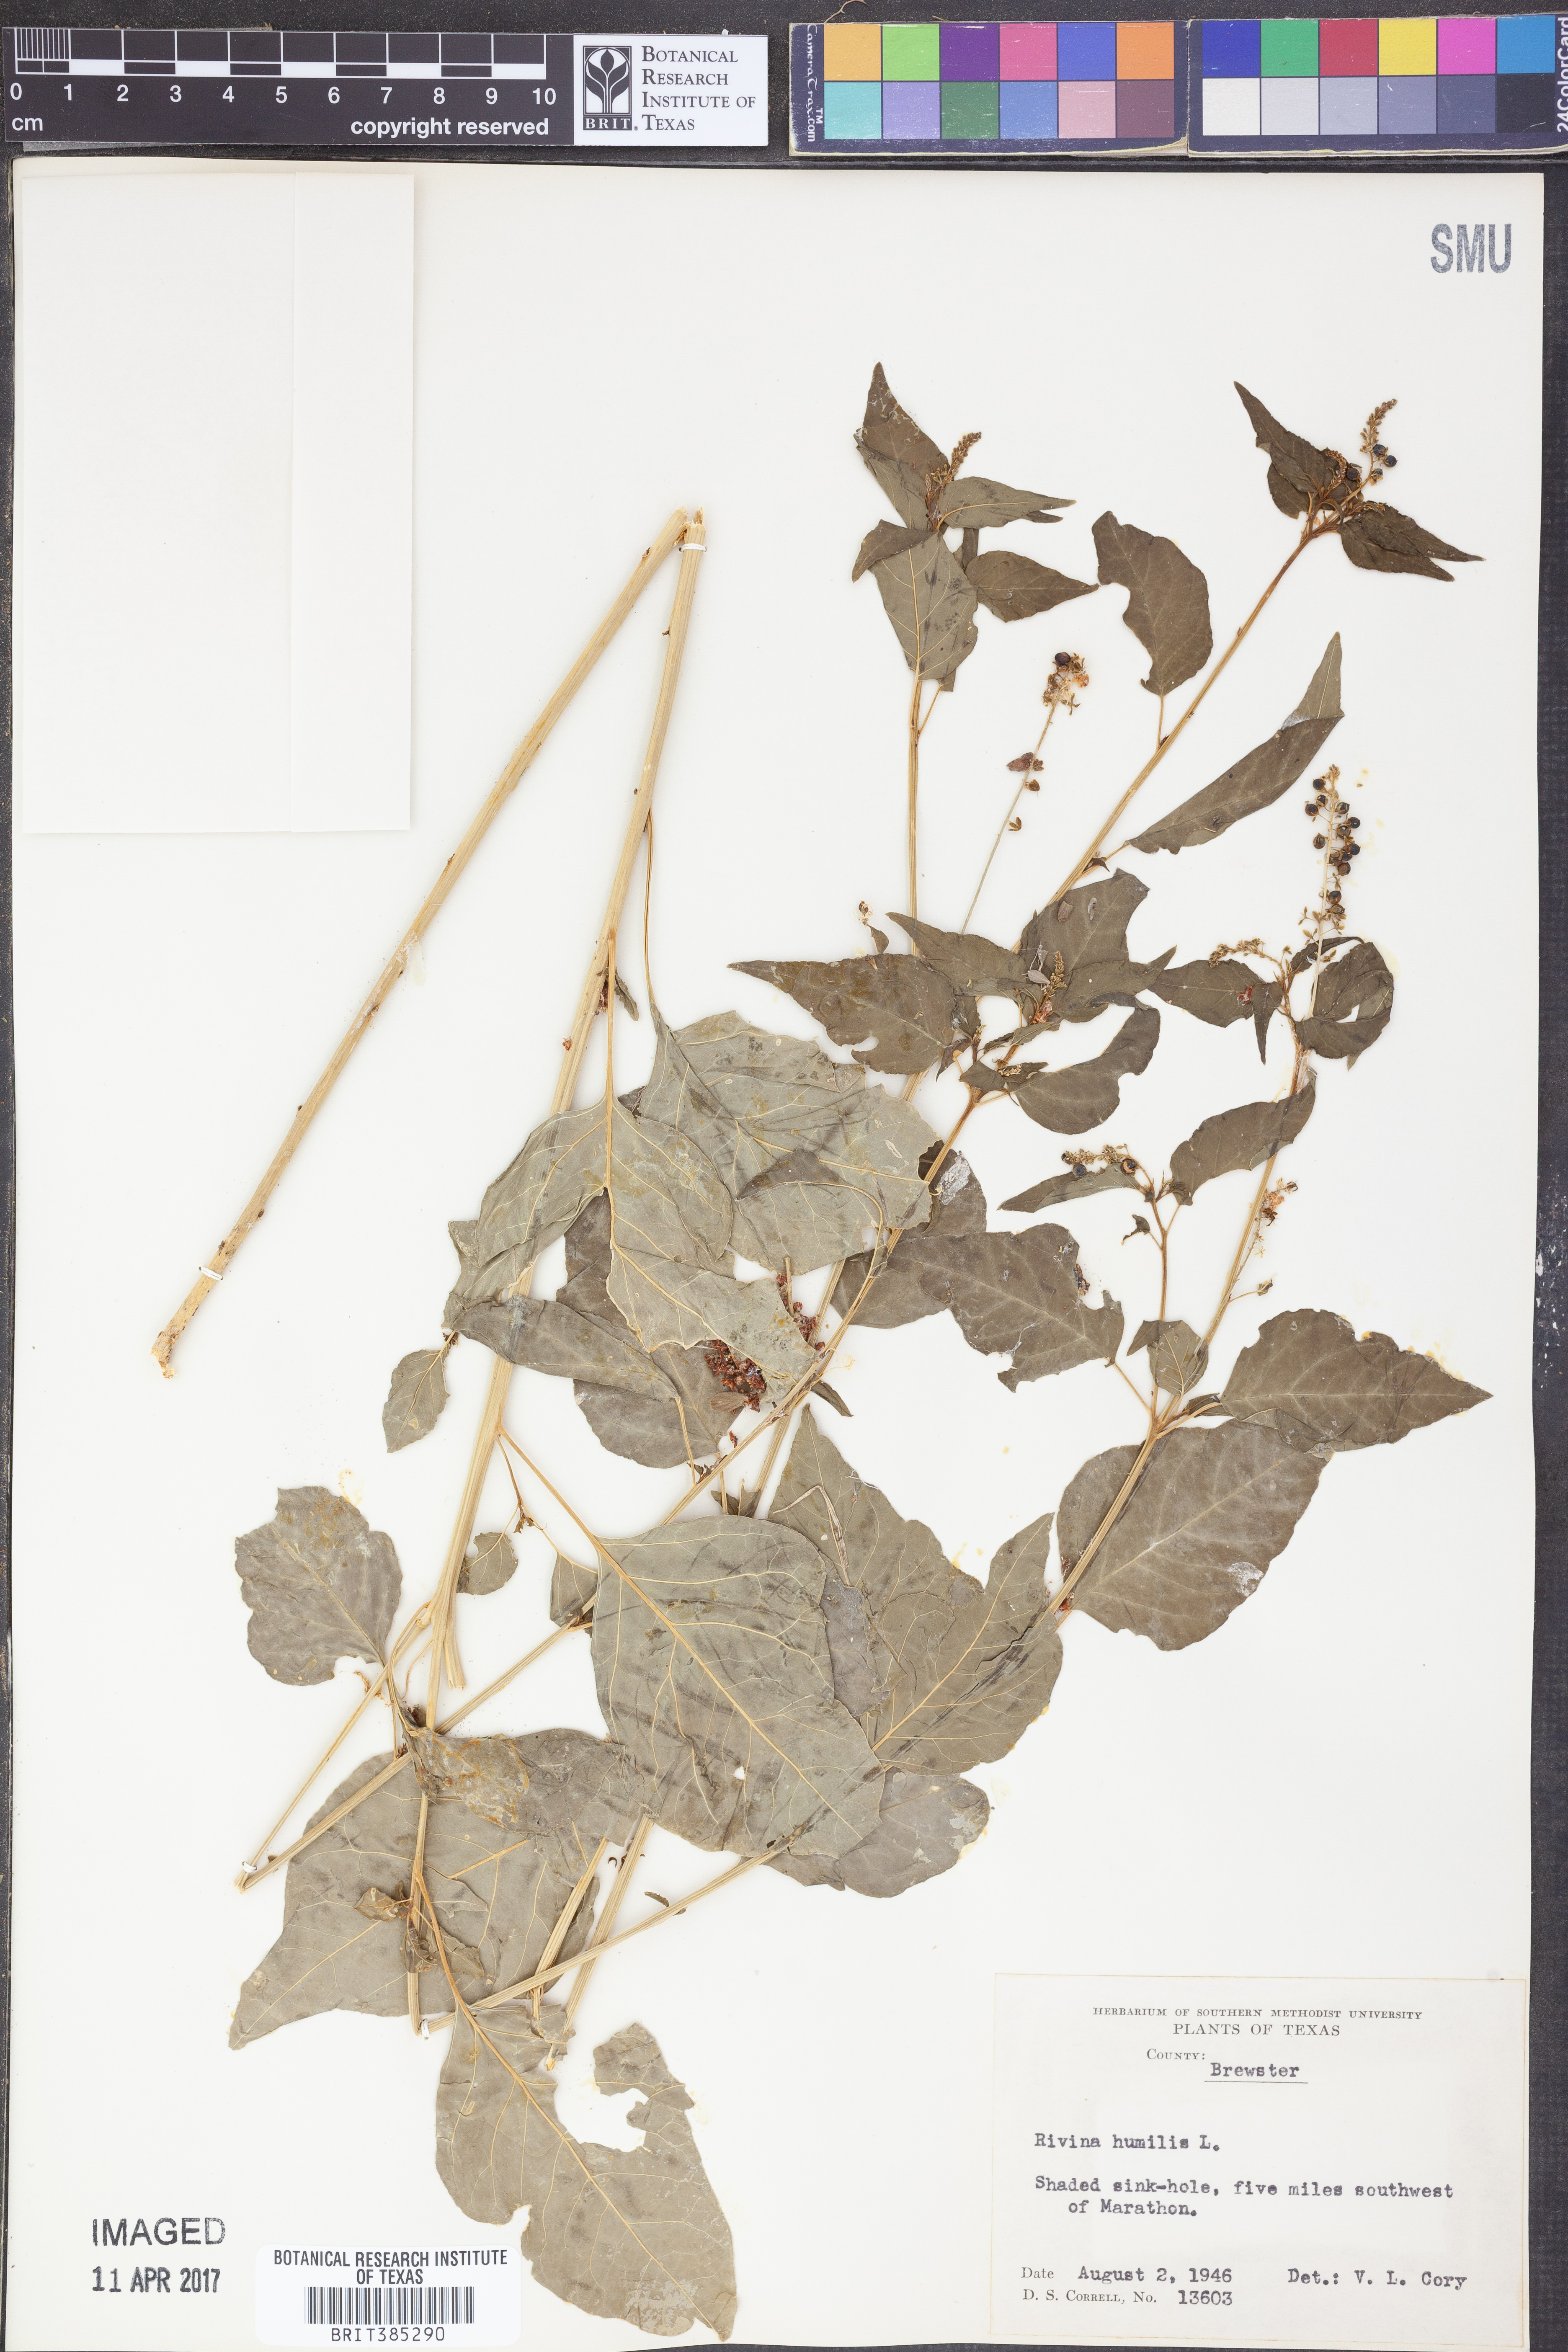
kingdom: Plantae
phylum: Tracheophyta
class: Magnoliopsida
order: Caryophyllales
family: Phytolaccaceae
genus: Rivina
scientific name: Rivina humilis
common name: Rougeplant
